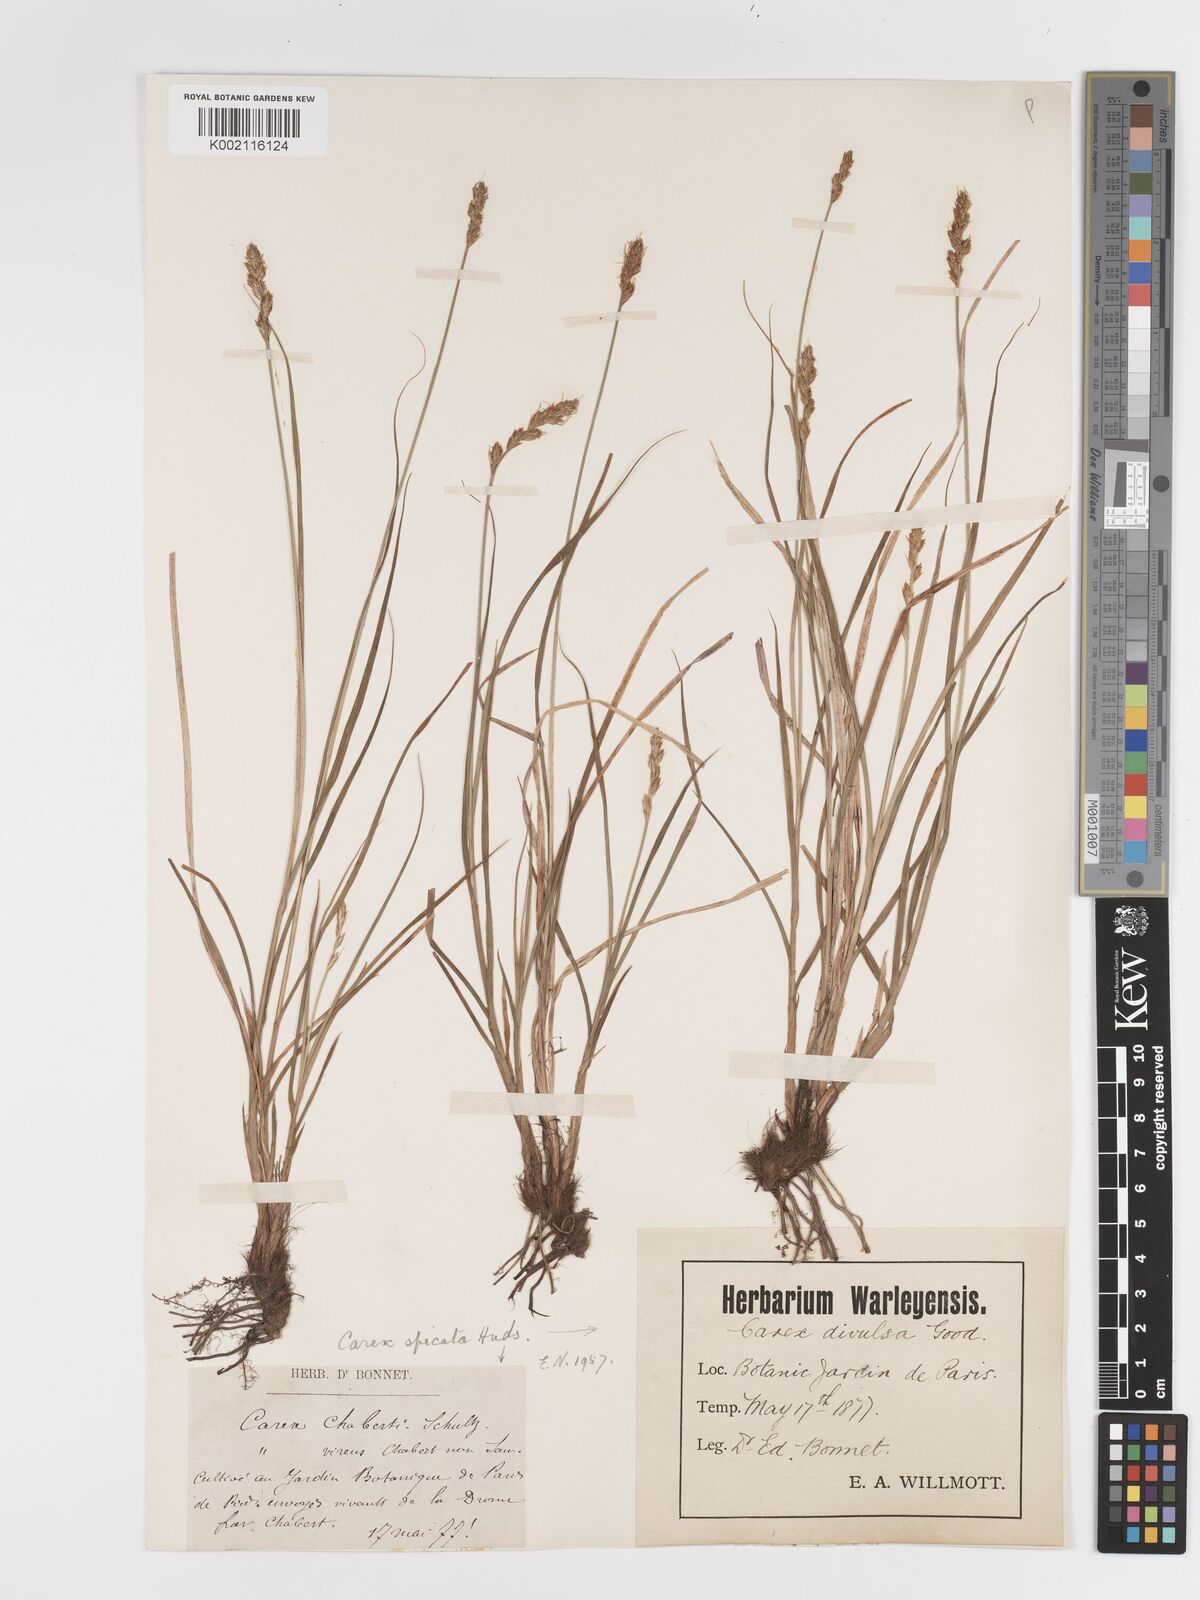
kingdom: Plantae
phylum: Tracheophyta
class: Liliopsida
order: Poales
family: Cyperaceae
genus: Carex
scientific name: Carex spicata
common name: Spiked sedge
